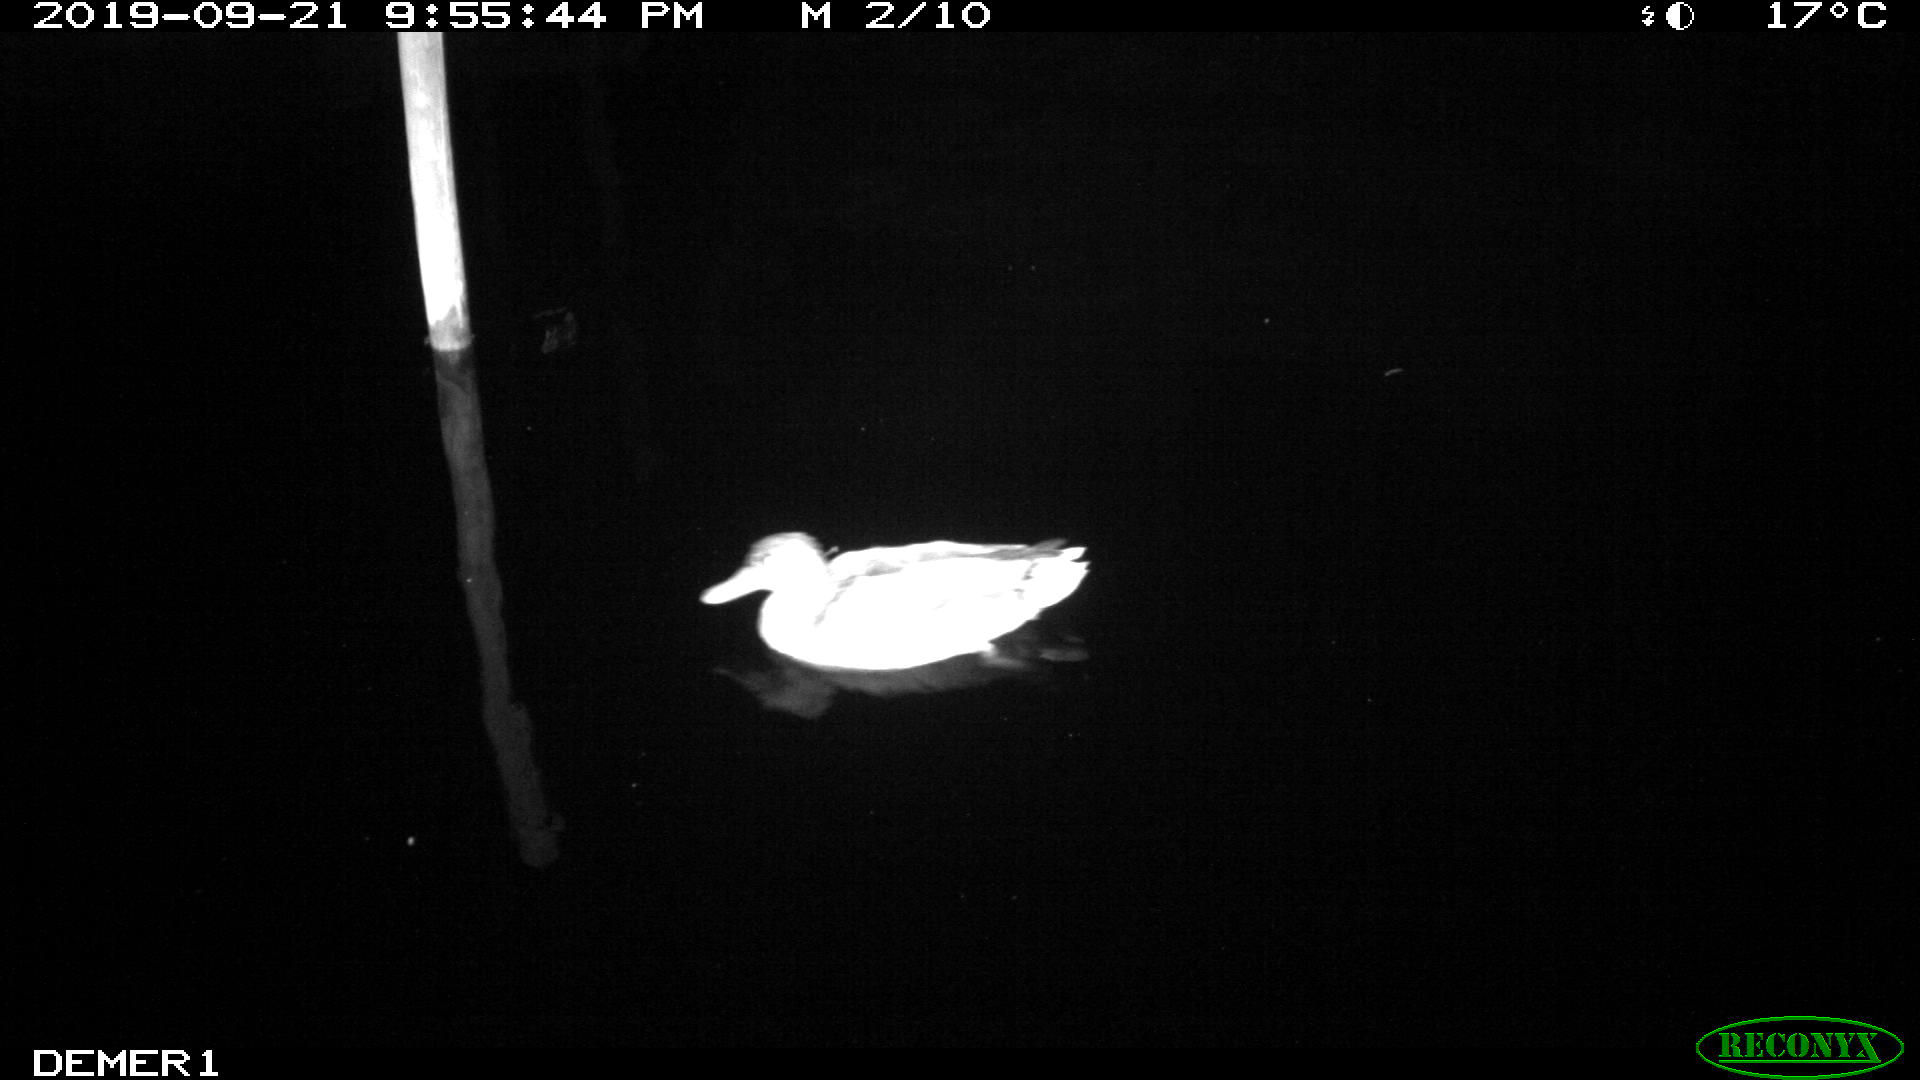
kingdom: Animalia
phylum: Chordata
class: Aves
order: Anseriformes
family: Anatidae
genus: Anas
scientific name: Anas platyrhynchos
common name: Mallard
